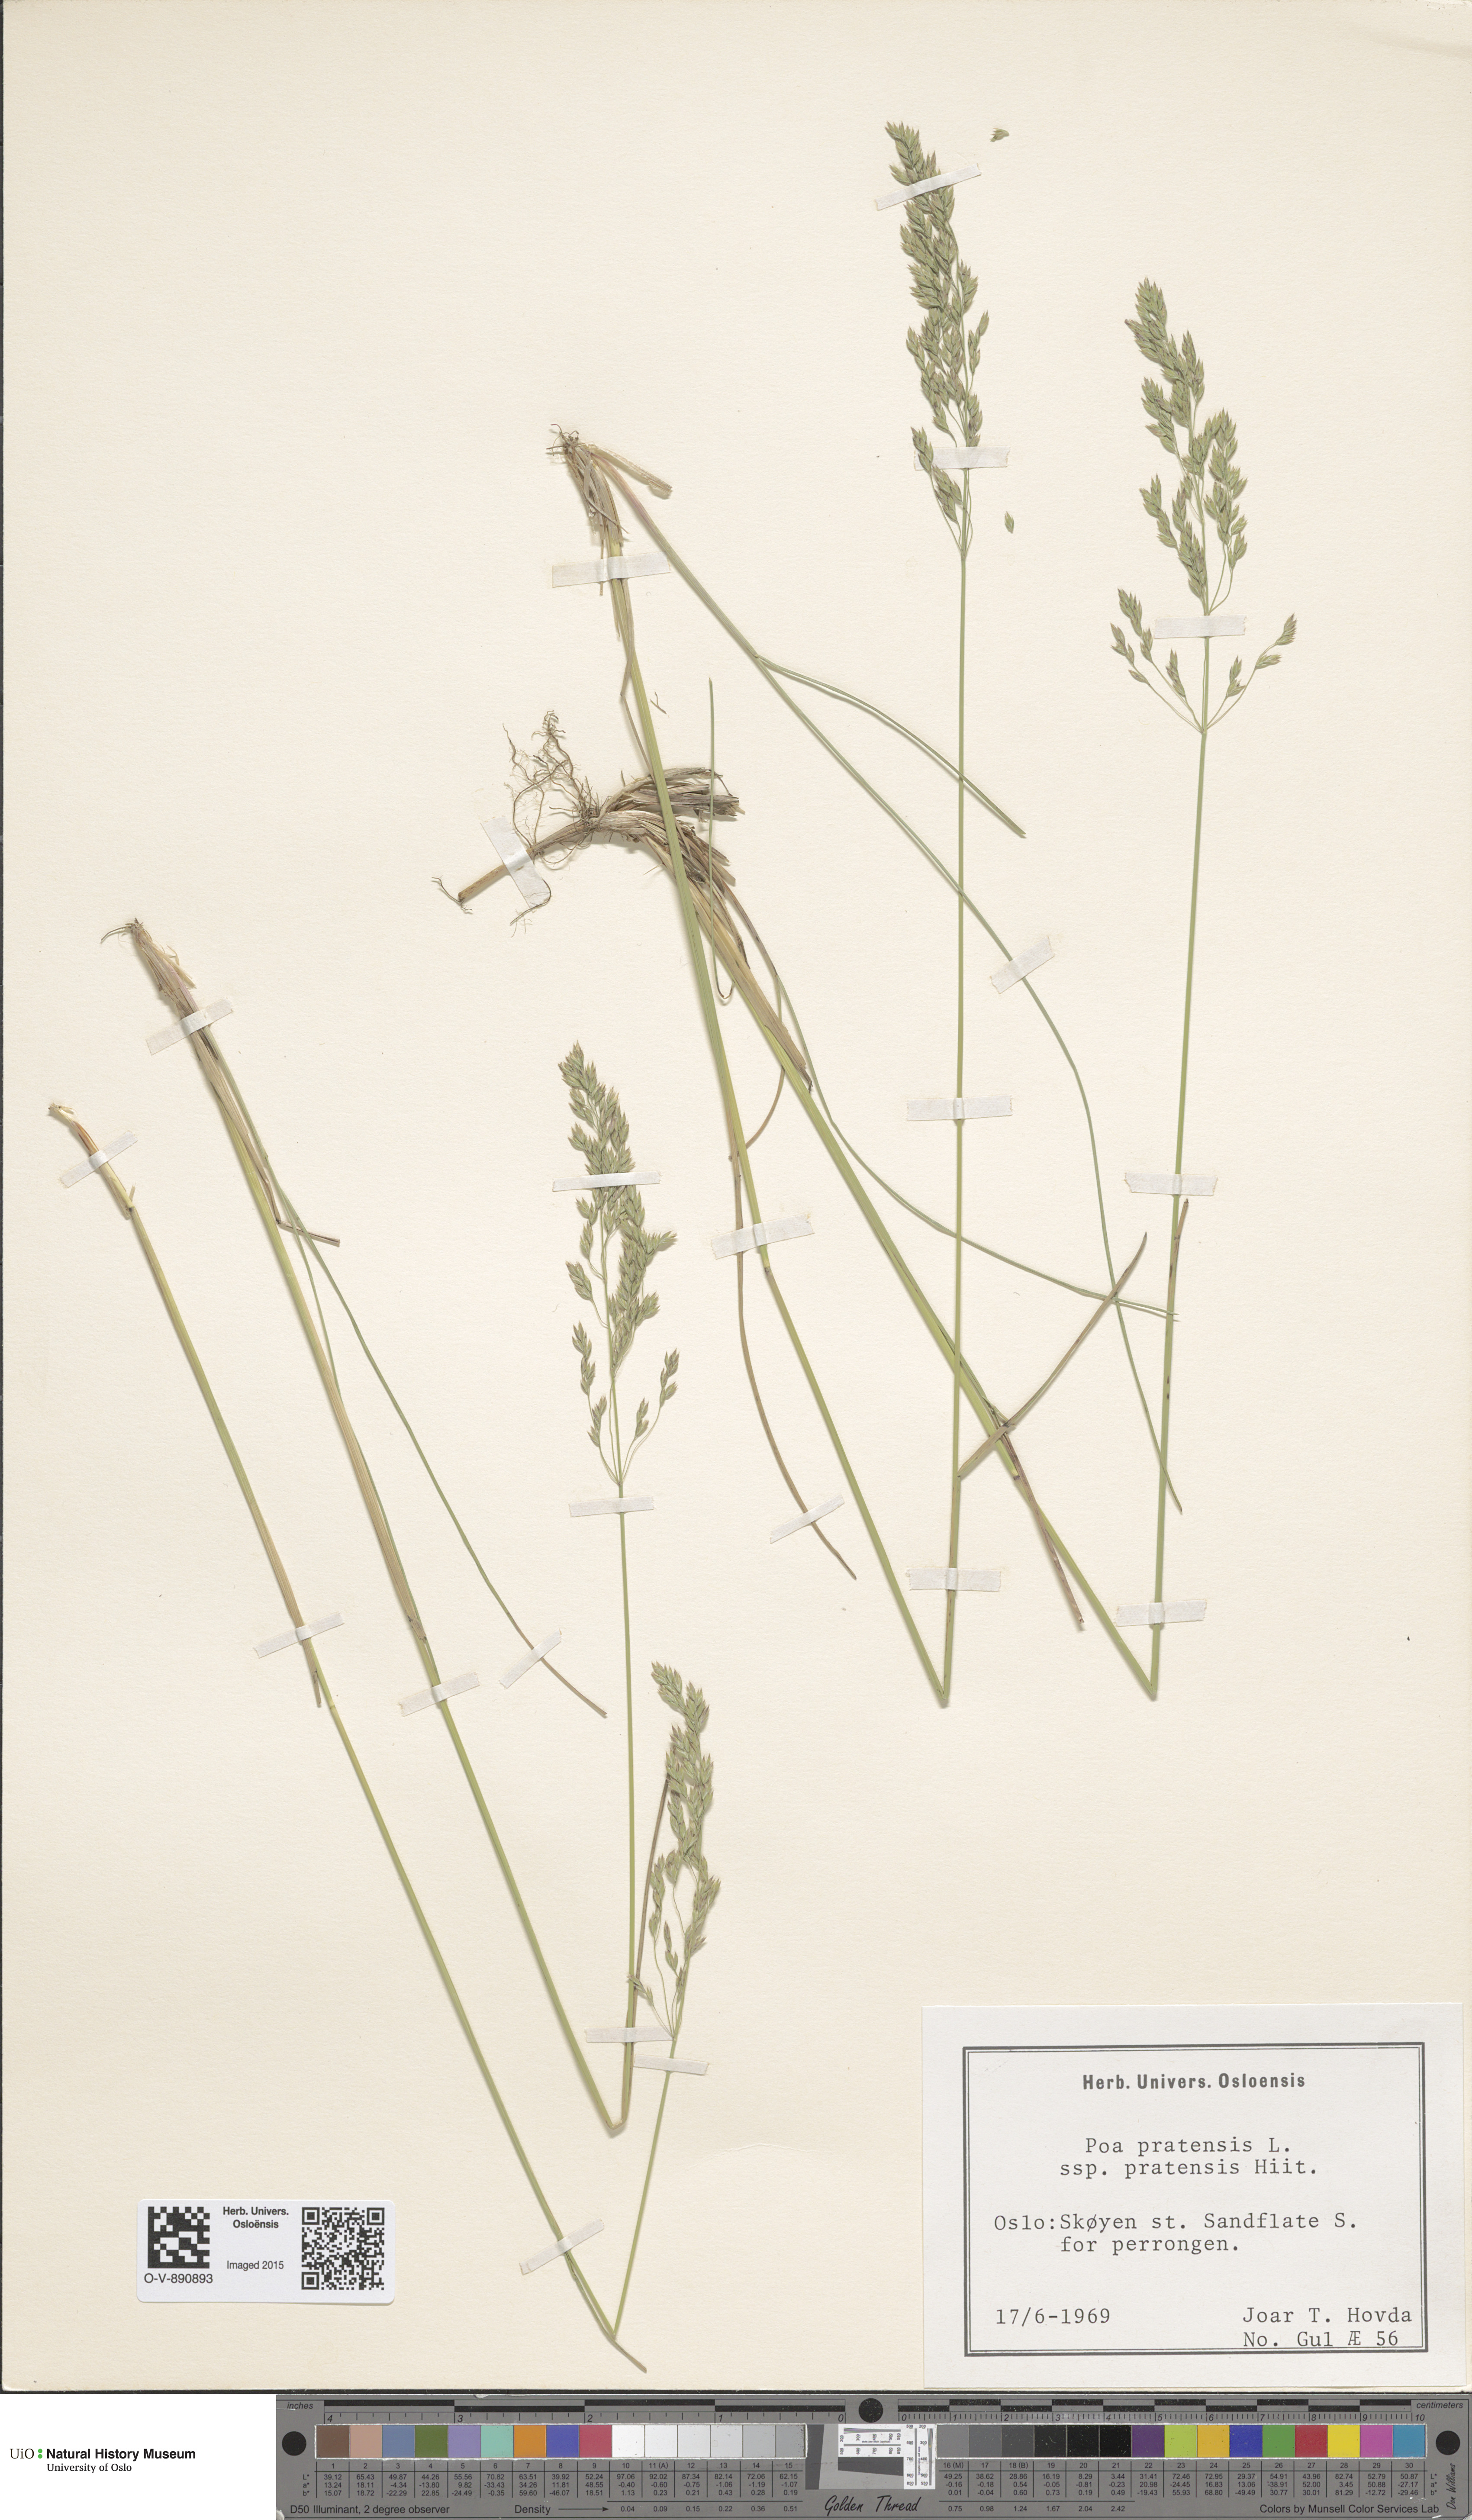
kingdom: Plantae
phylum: Tracheophyta
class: Liliopsida
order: Poales
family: Poaceae
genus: Poa
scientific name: Poa pratensis
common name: Kentucky bluegrass
